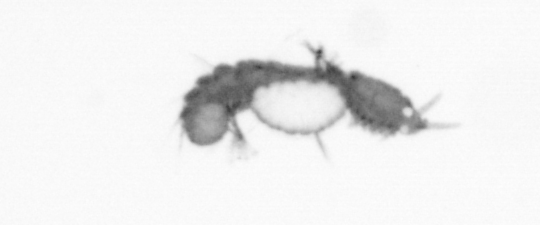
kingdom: Animalia
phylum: Annelida
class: Polychaeta
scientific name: Polychaeta
